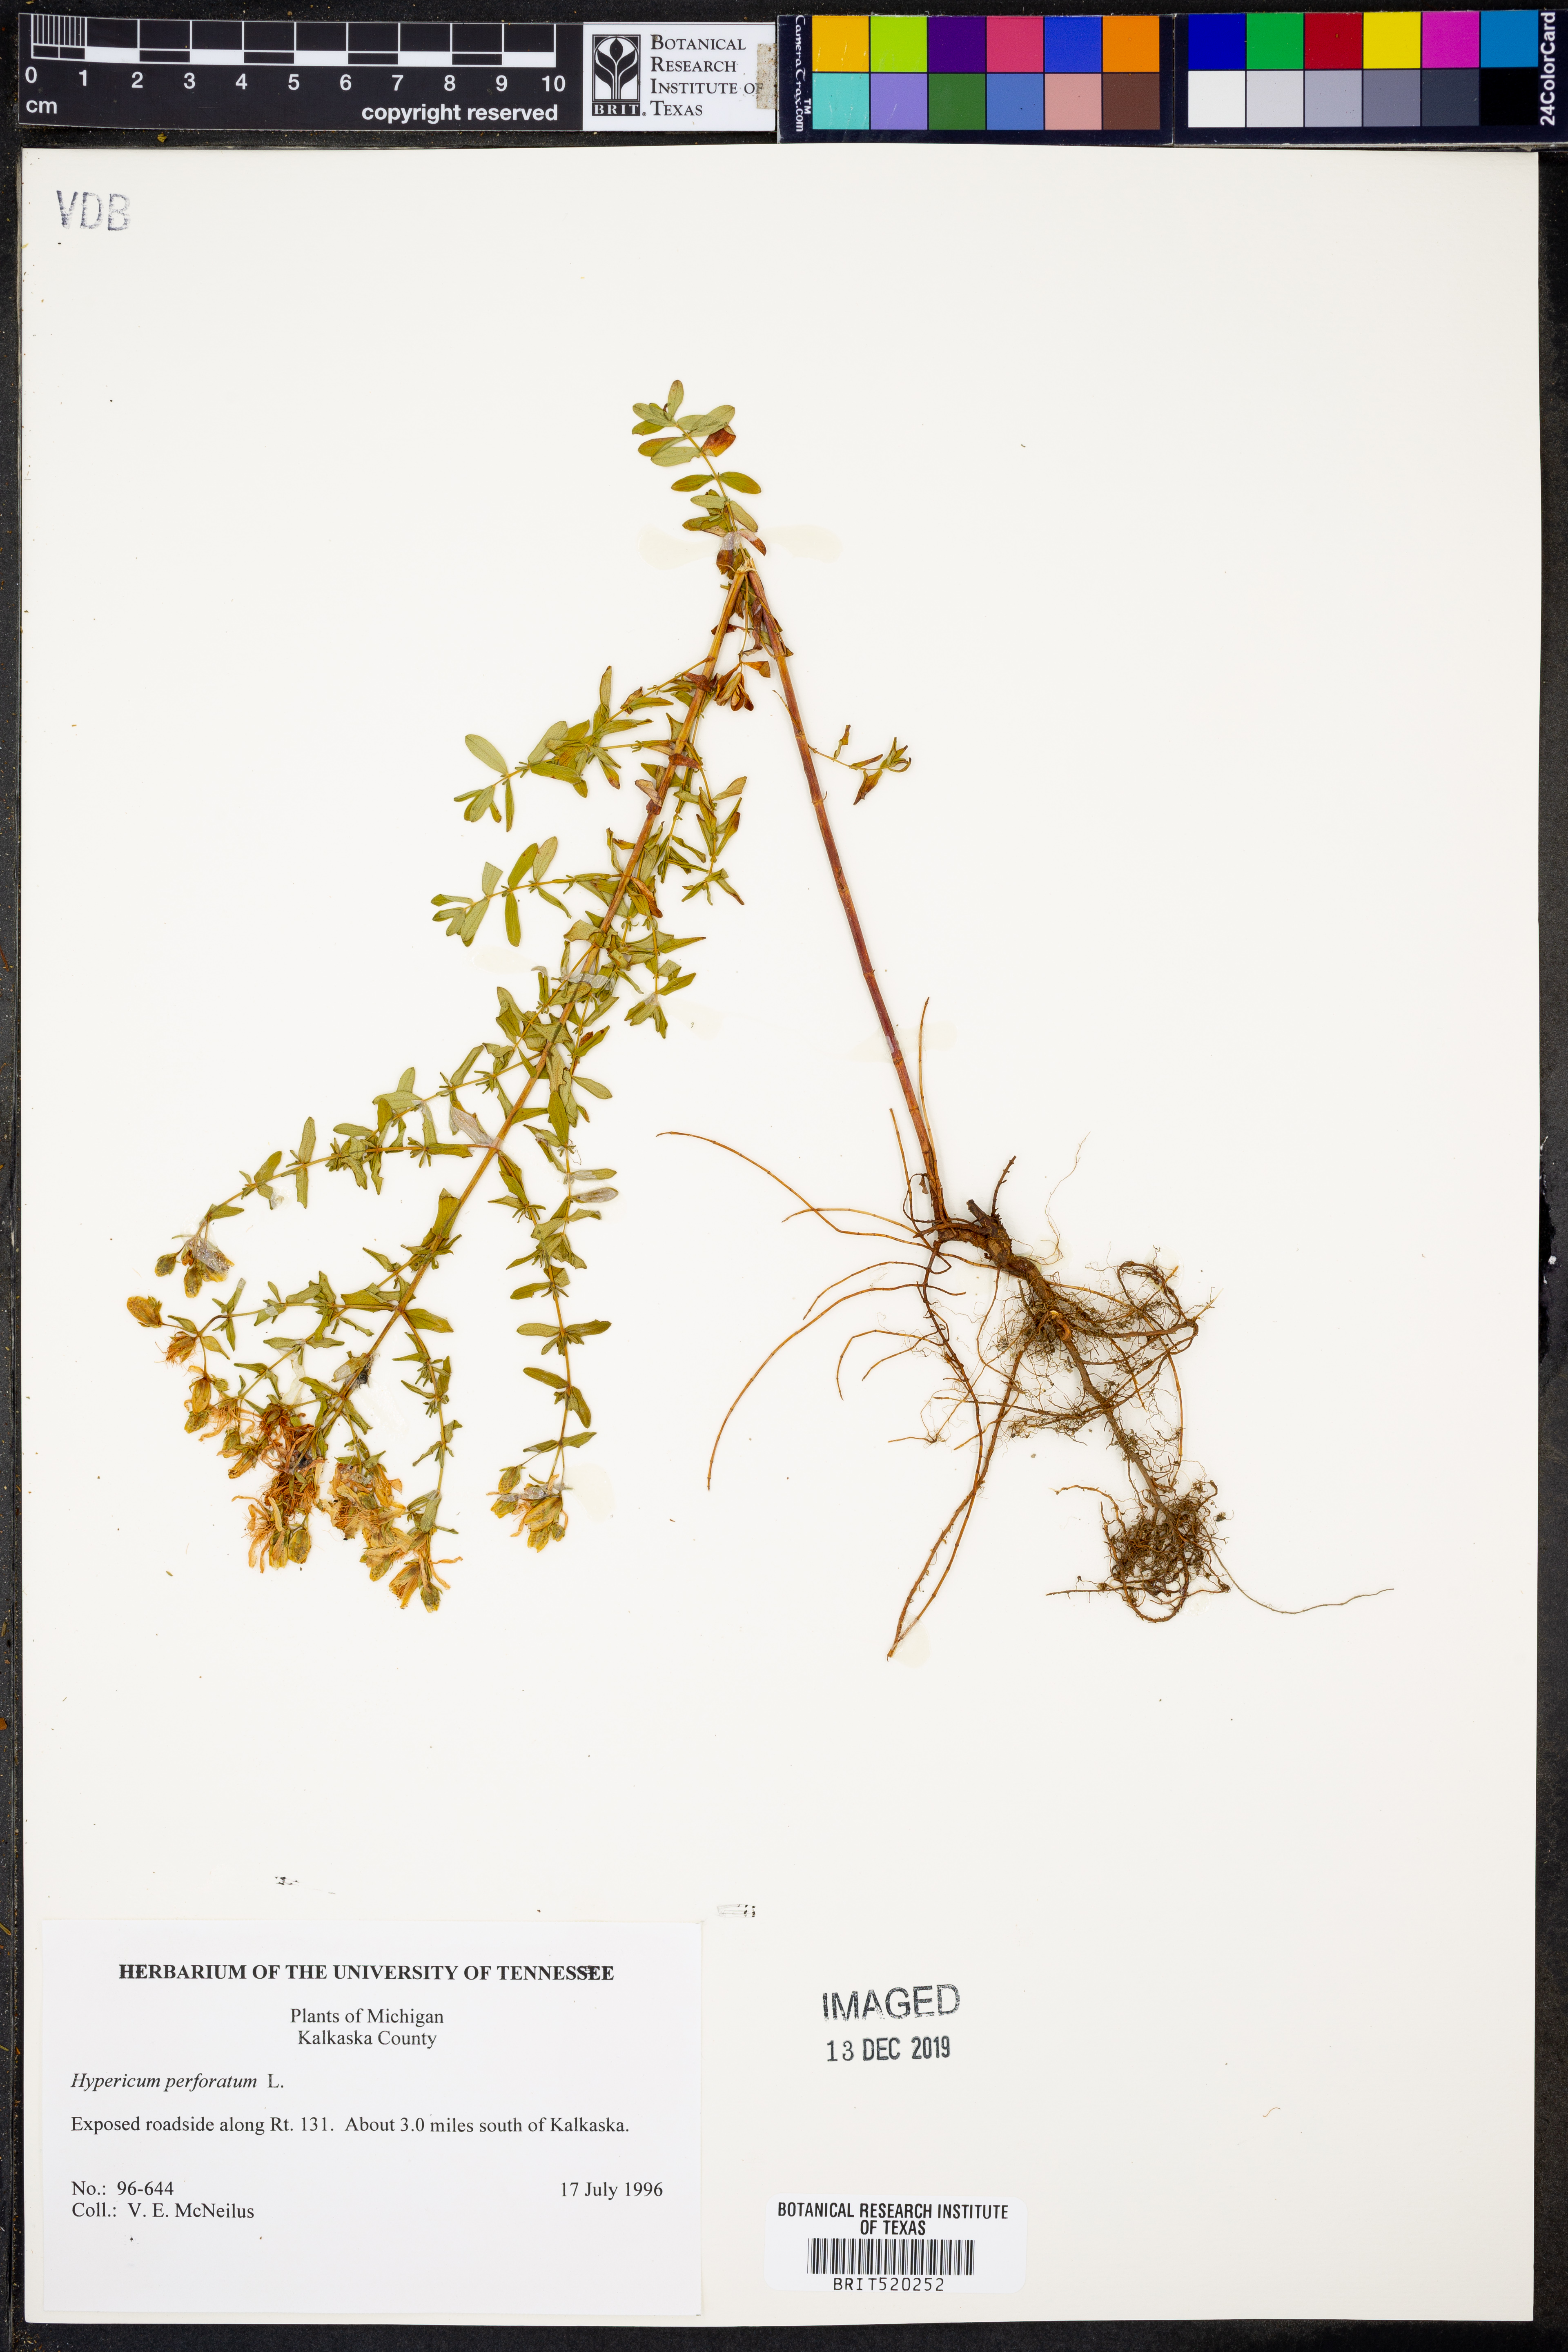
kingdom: Plantae
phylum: Tracheophyta
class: Magnoliopsida
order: Malpighiales
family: Hypericaceae
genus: Hypericum
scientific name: Hypericum perforatum
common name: Common st. johnswort
